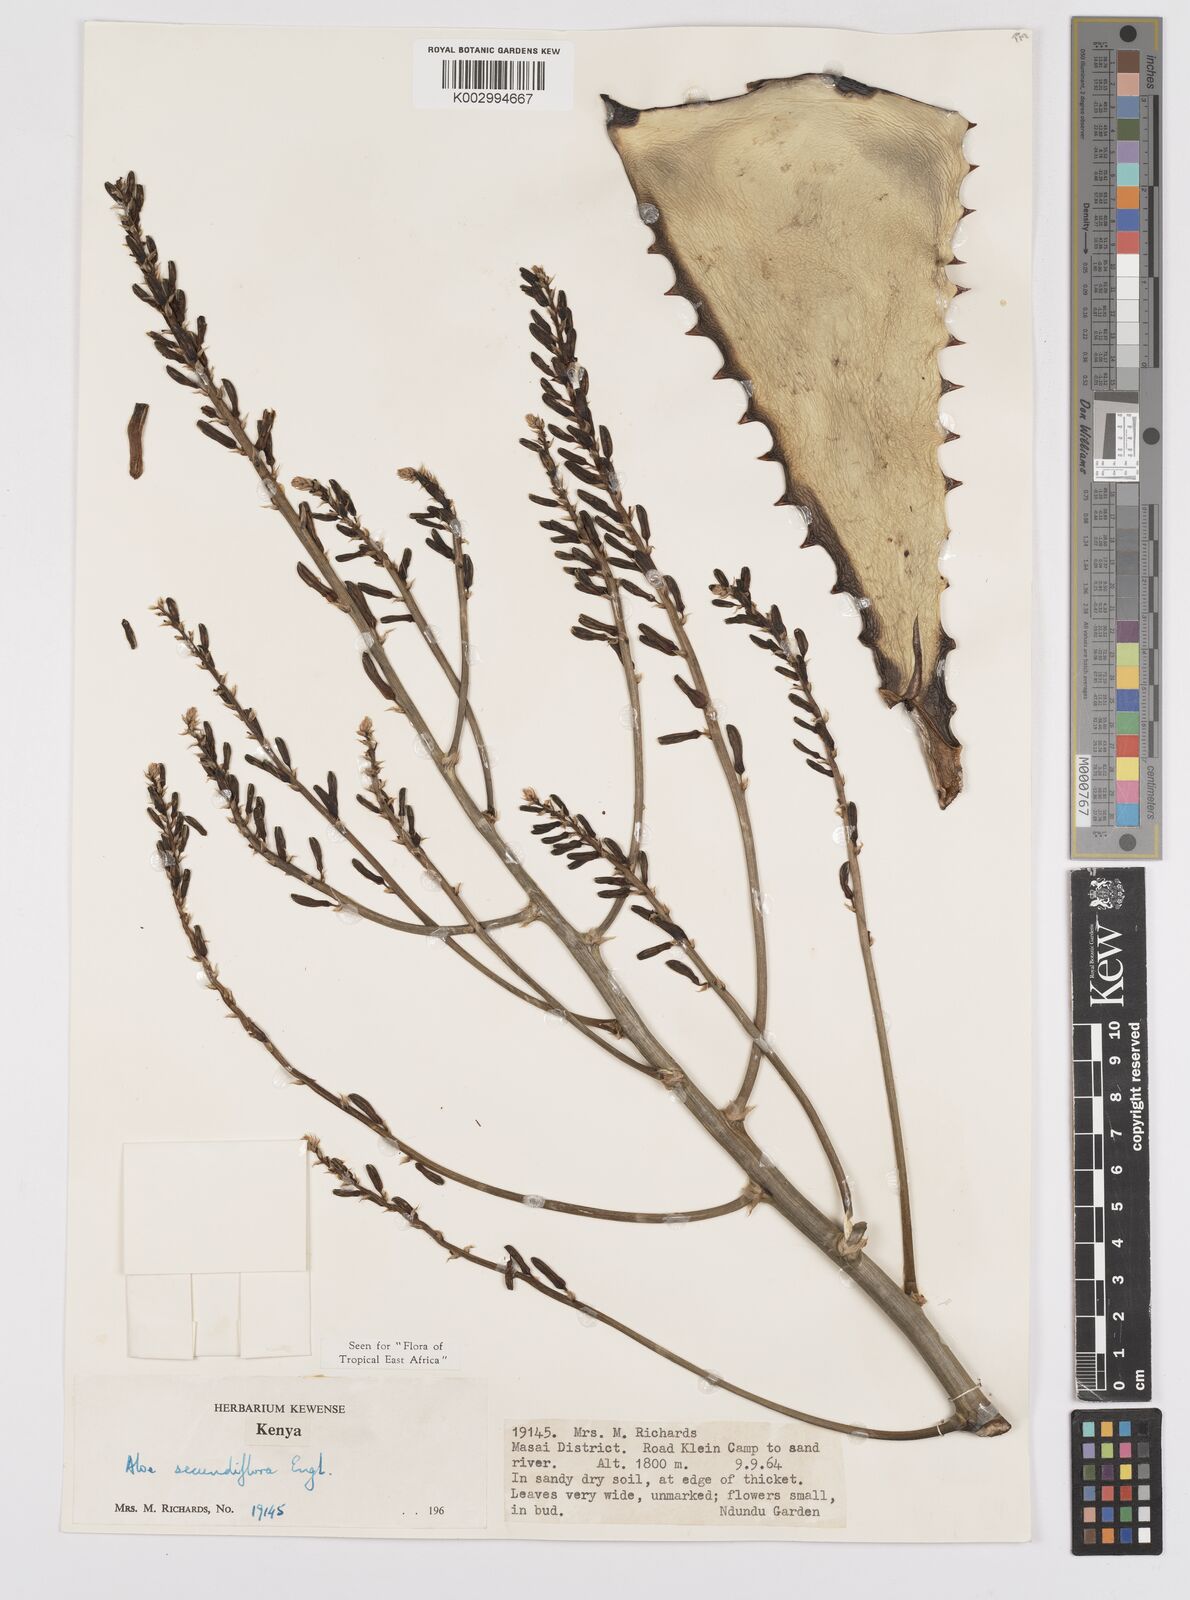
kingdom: Plantae
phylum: Tracheophyta
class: Liliopsida
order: Asparagales
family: Asphodelaceae
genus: Aloe
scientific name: Aloe
